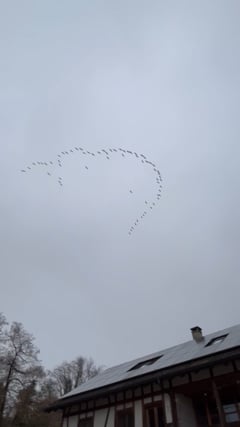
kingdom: Animalia
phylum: Chordata
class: Aves
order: Gruiformes
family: Gruidae
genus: Grus
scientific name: Grus grus
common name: Common crane
